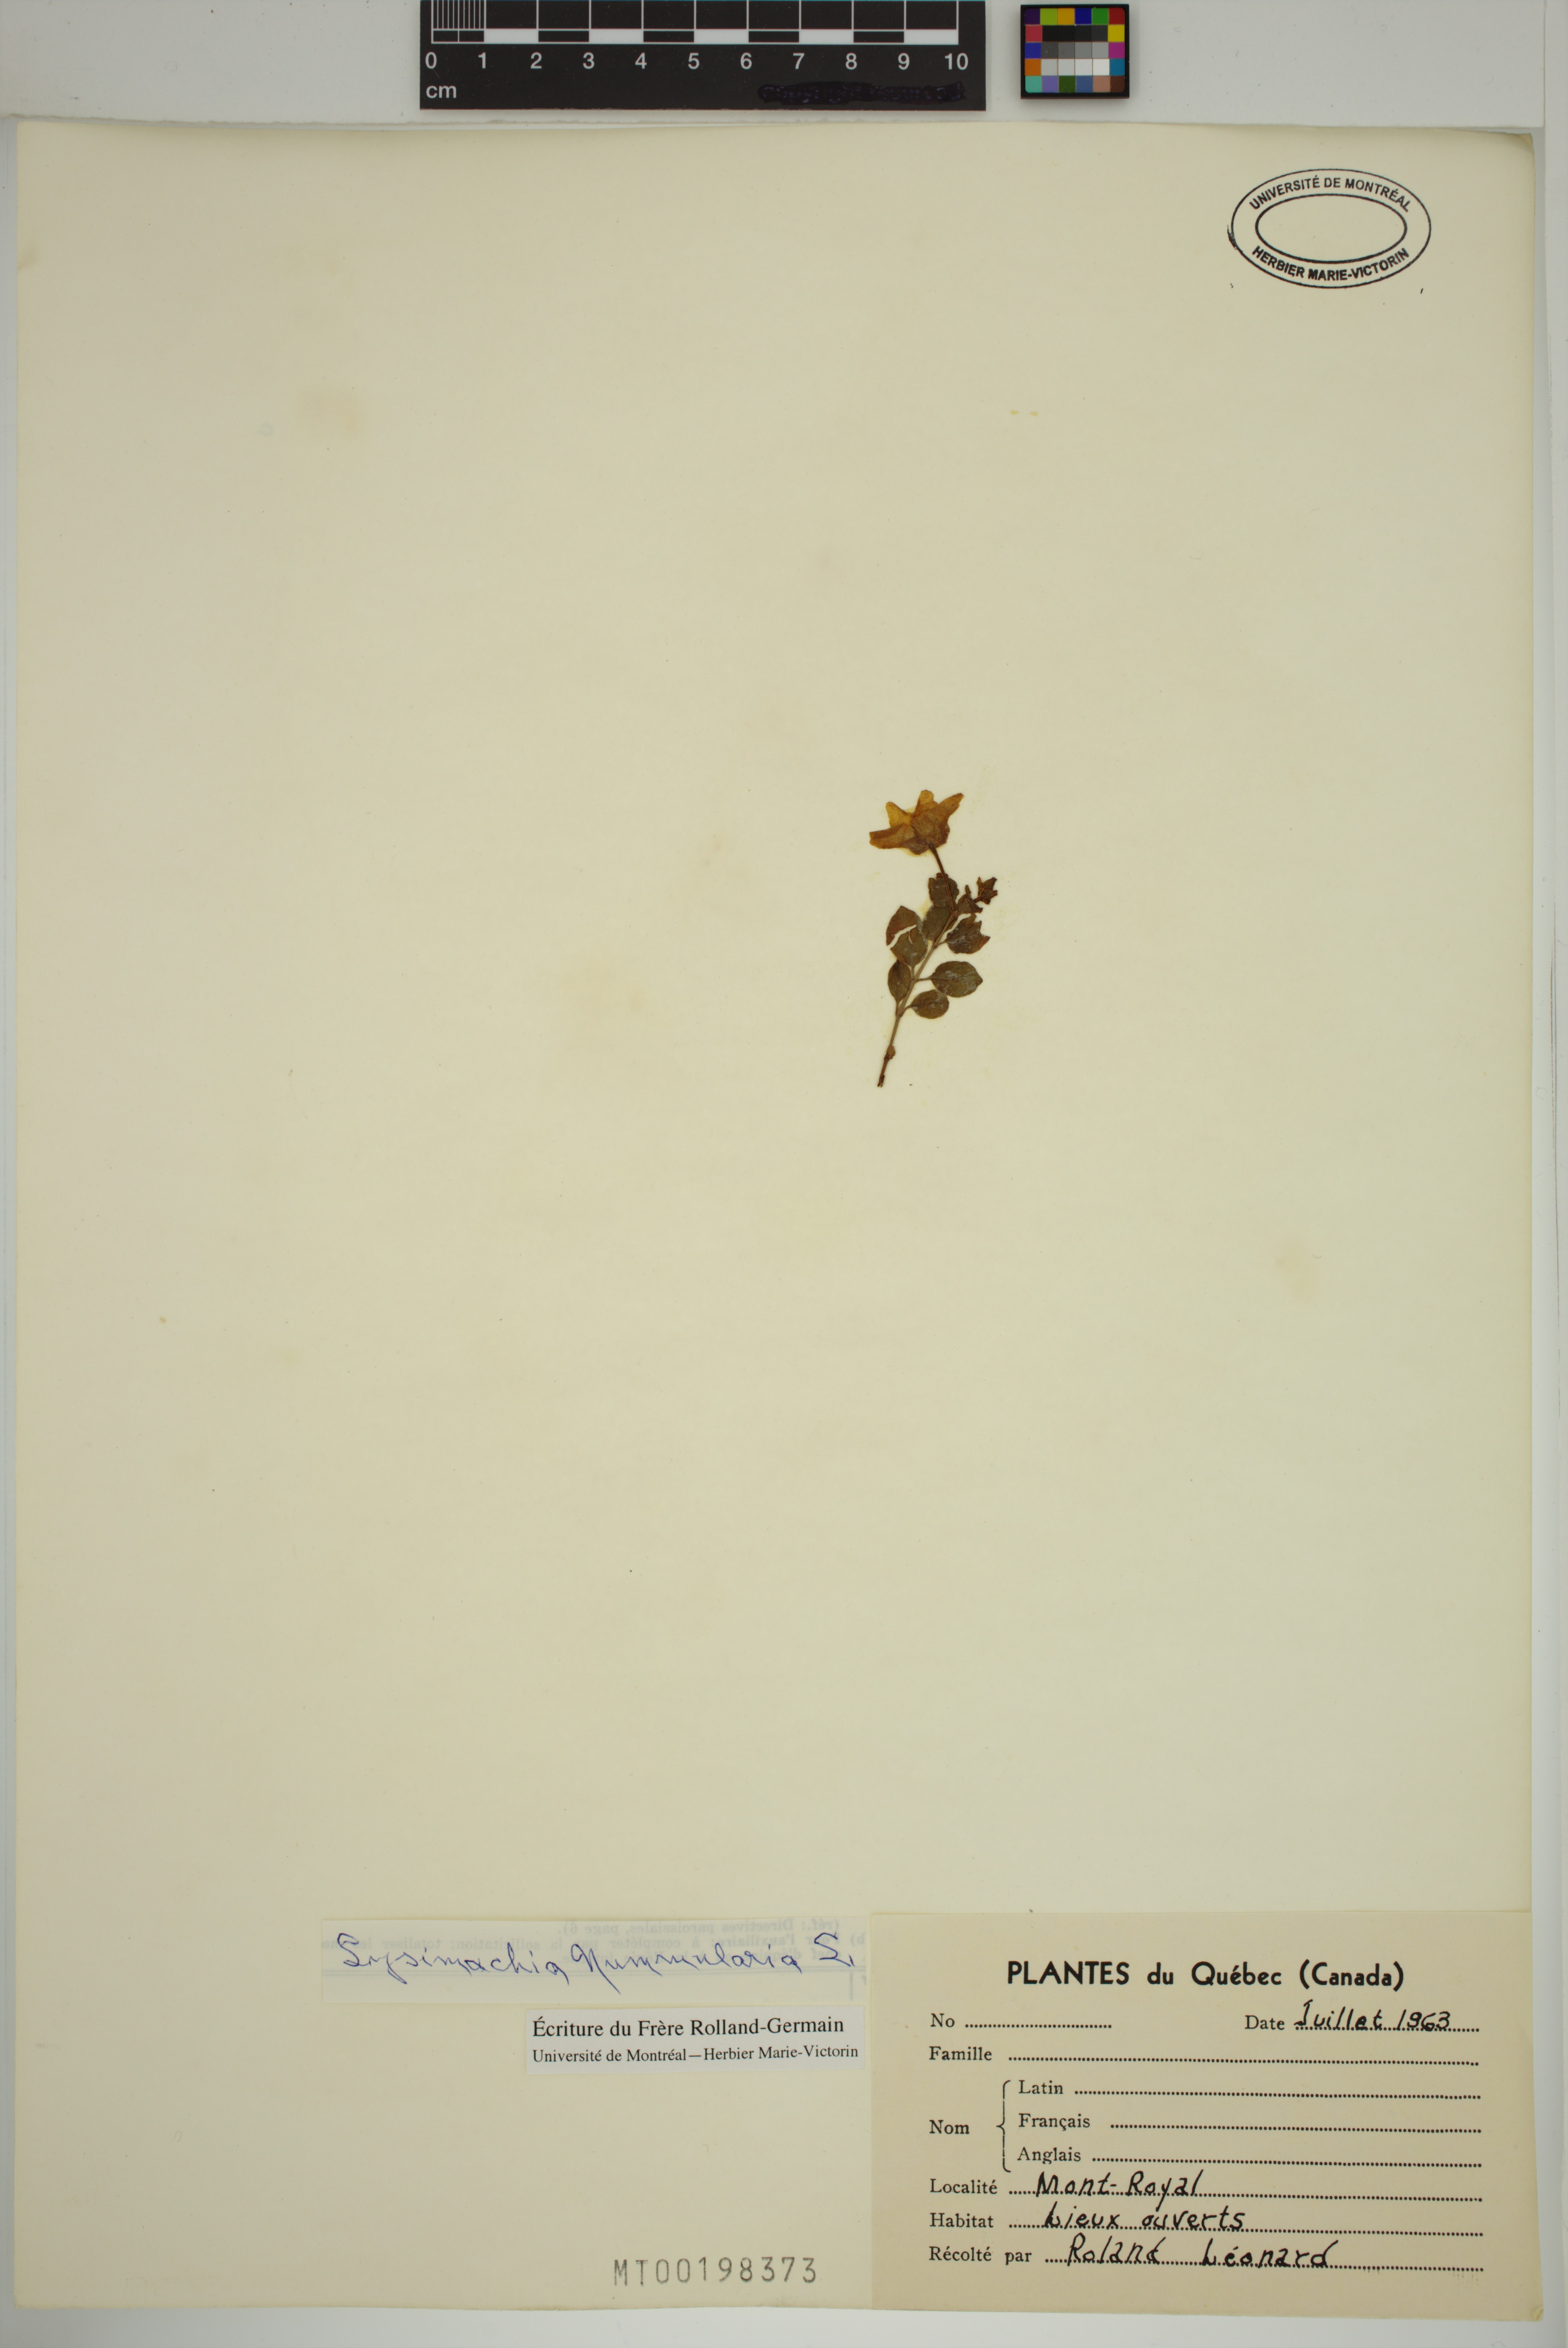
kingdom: Plantae
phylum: Tracheophyta
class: Magnoliopsida
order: Ericales
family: Primulaceae
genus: Lysimachia
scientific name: Lysimachia nummularia
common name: Moneywort
